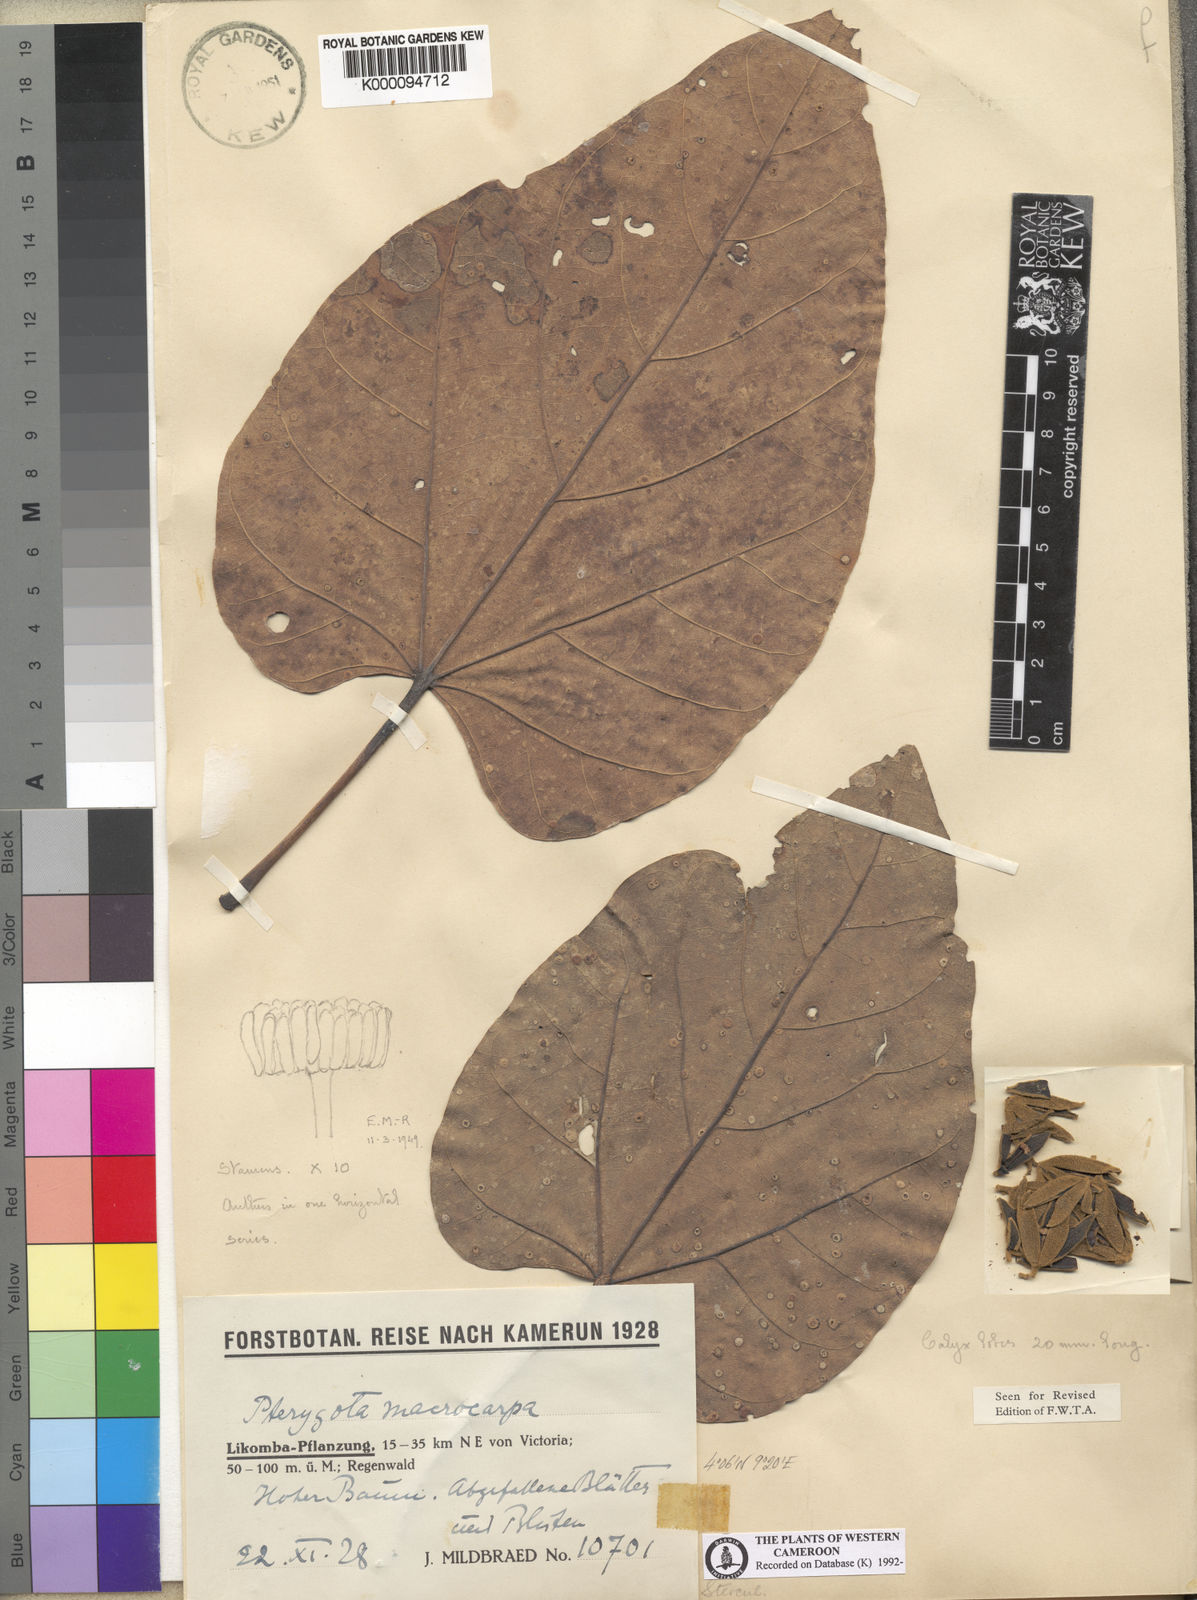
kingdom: Plantae
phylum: Tracheophyta
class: Magnoliopsida
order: Malvales
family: Malvaceae
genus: Pterygota
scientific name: Pterygota macrocarpa
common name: African pterygota
